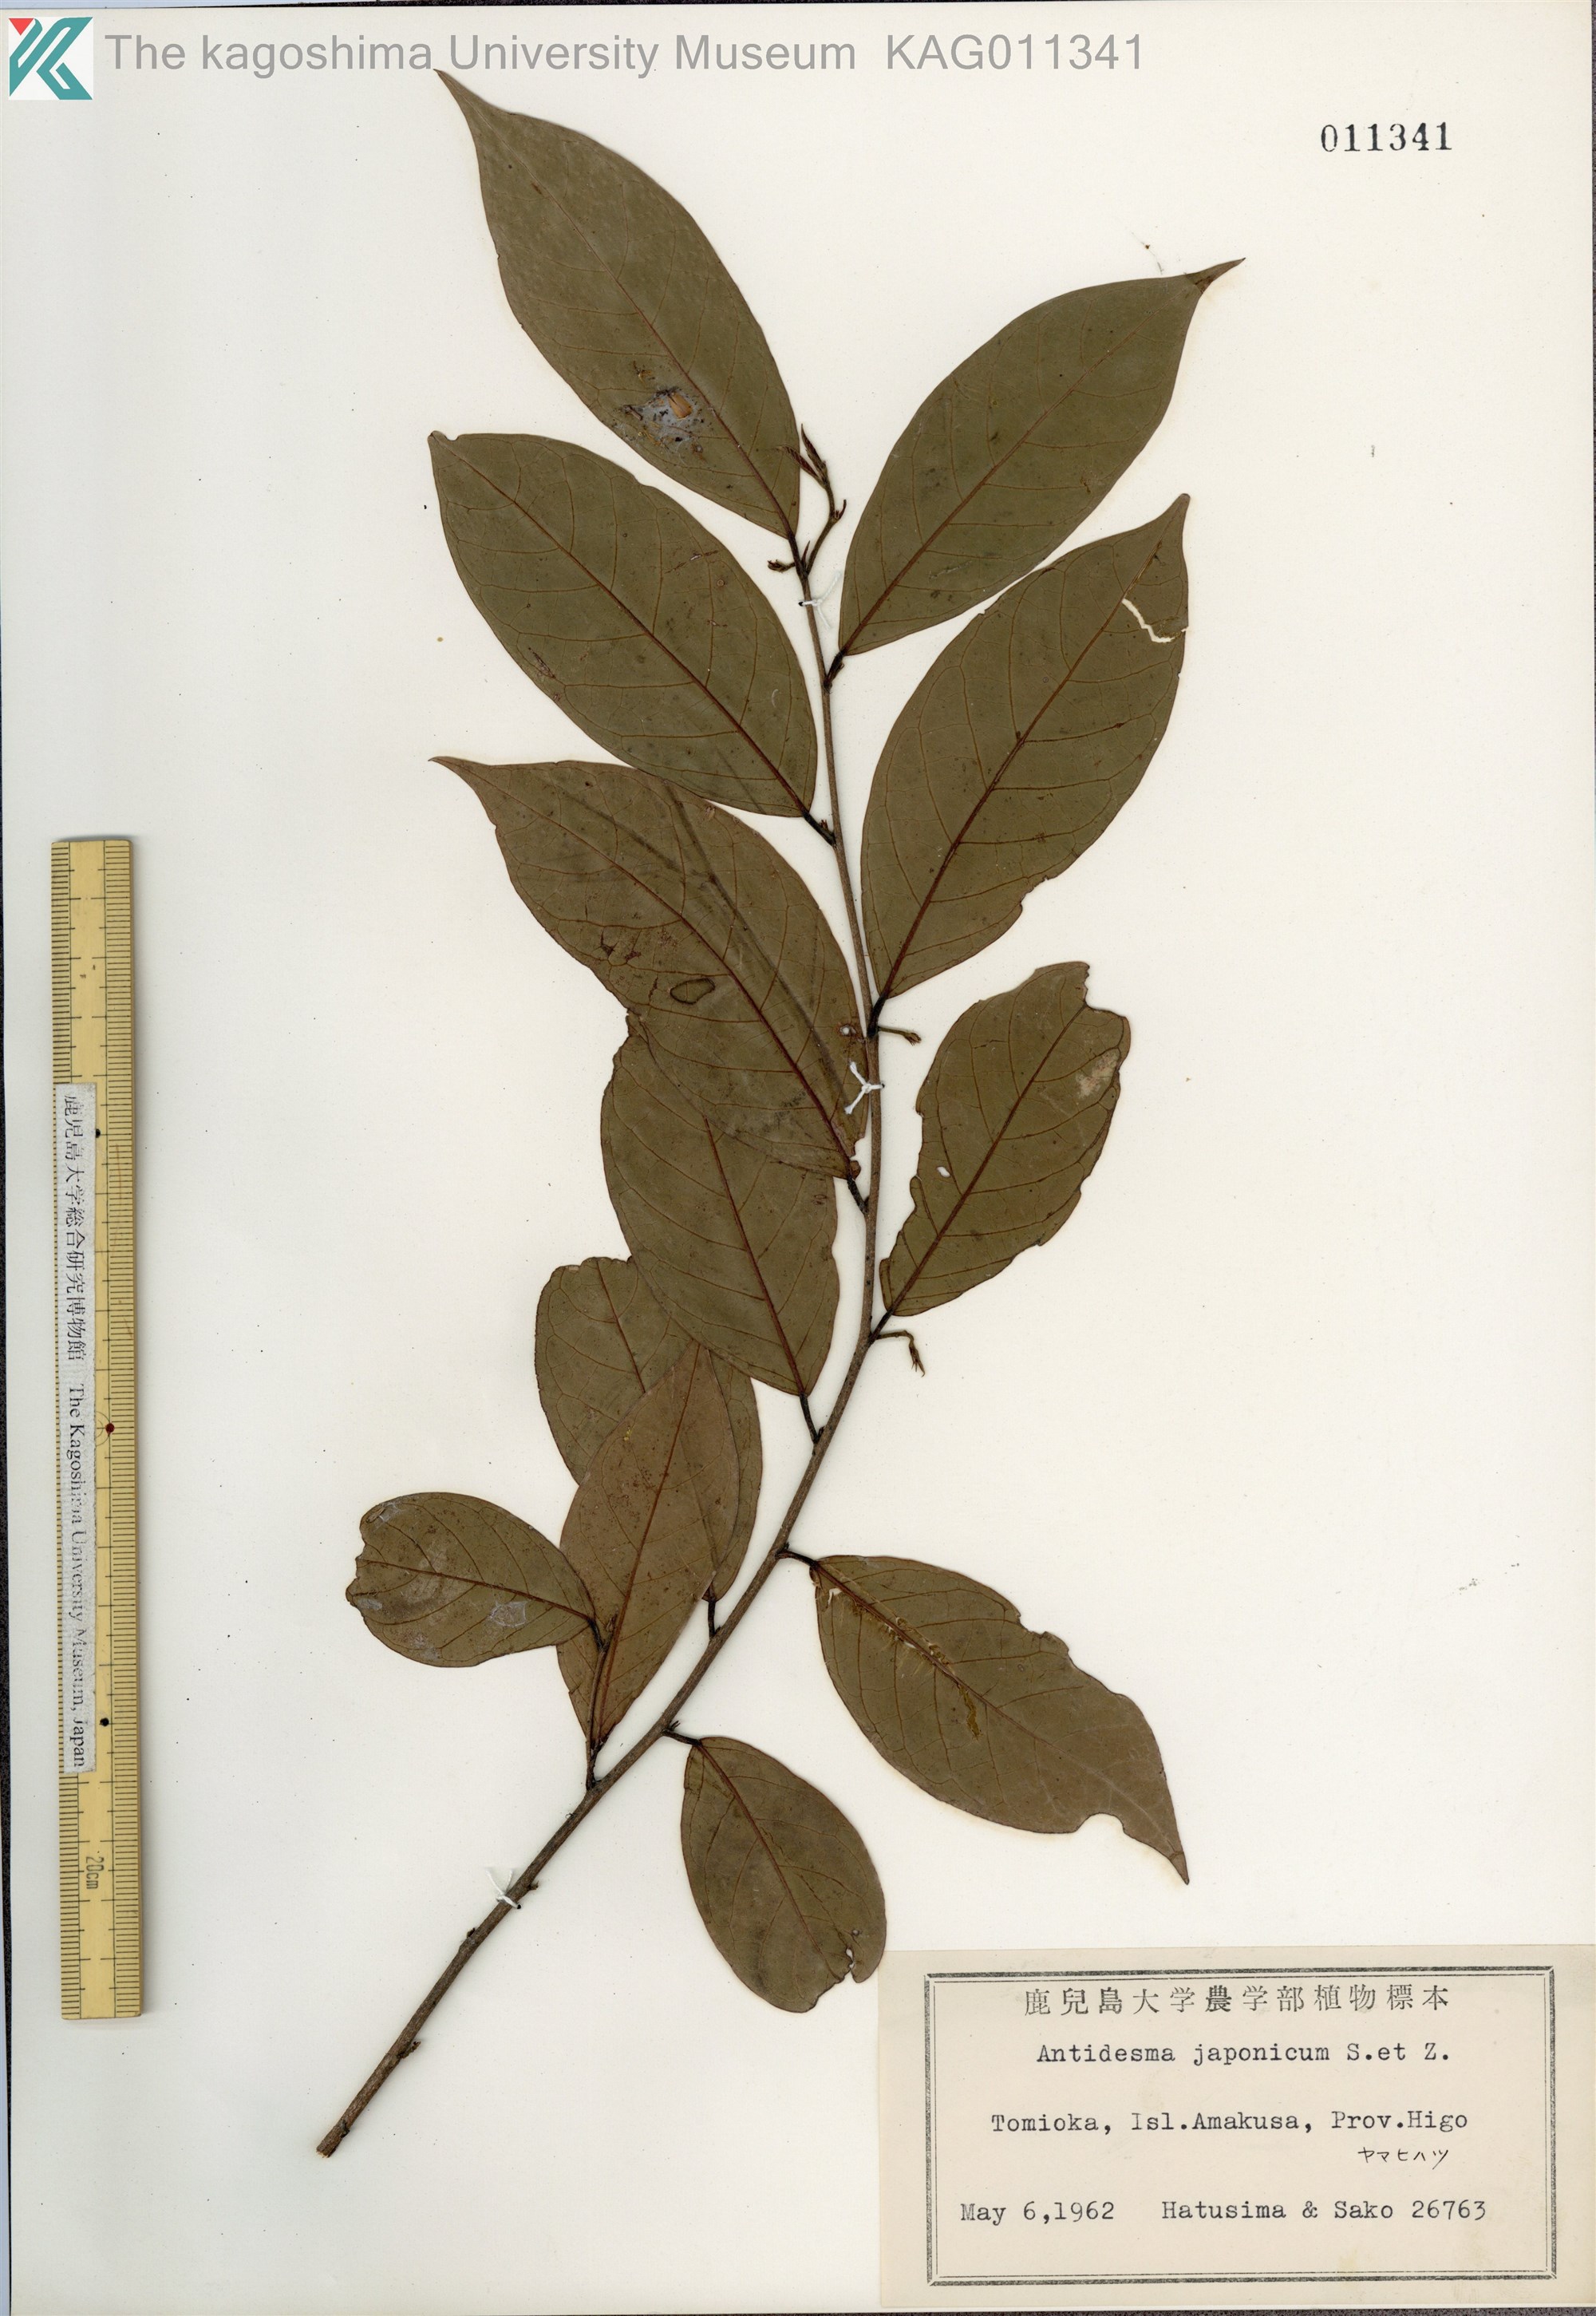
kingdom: Plantae
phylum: Tracheophyta
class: Magnoliopsida
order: Malpighiales
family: Phyllanthaceae
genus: Antidesma
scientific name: Antidesma japonicum
